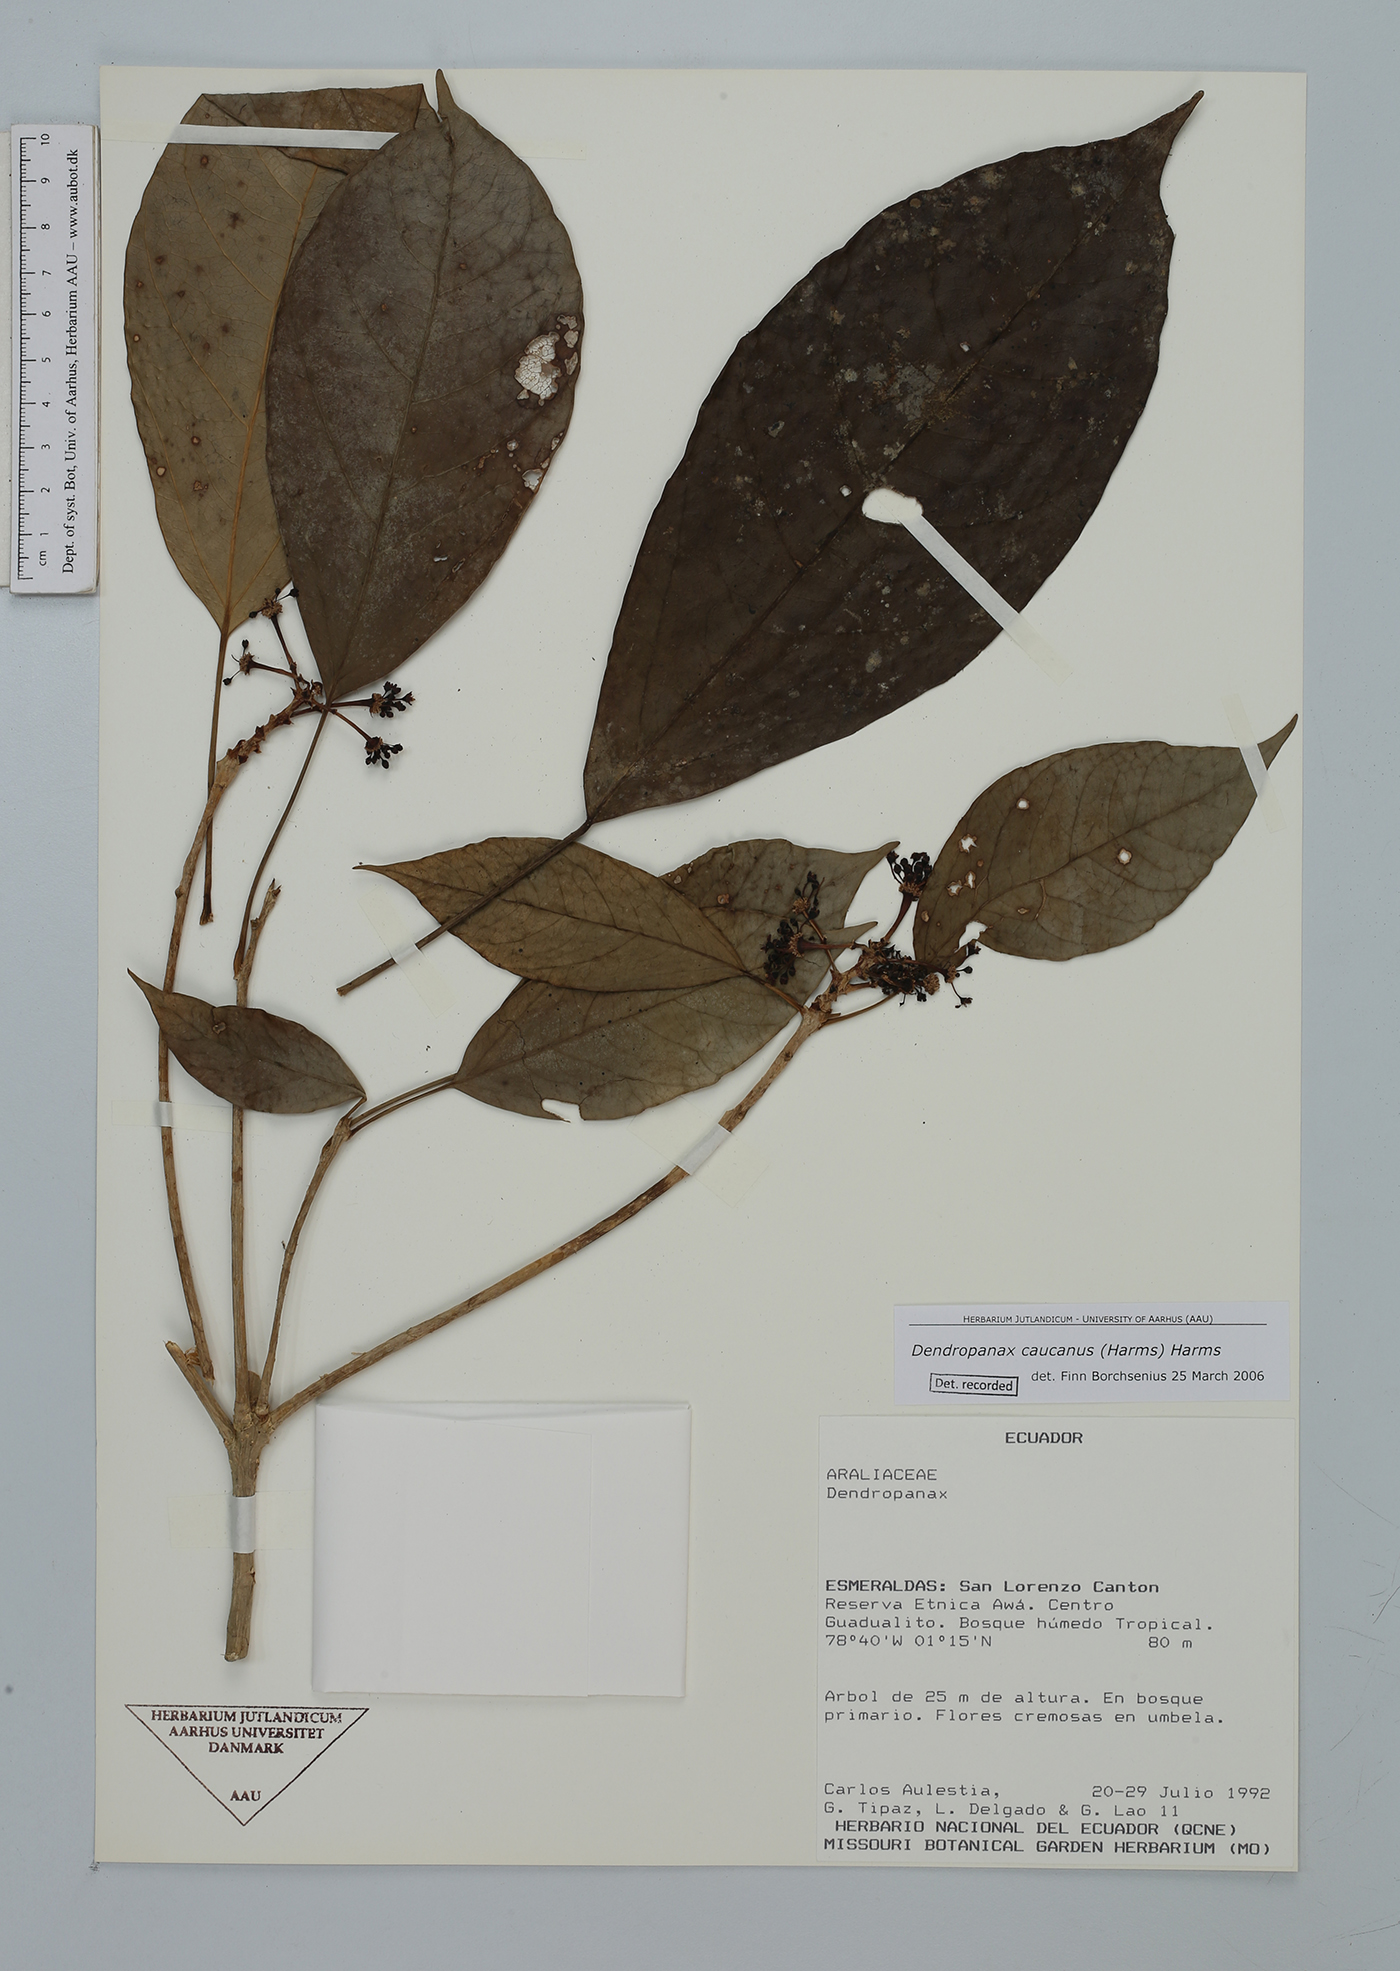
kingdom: Plantae
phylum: Tracheophyta
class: Magnoliopsida
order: Apiales
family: Araliaceae
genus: Dendropanax
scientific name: Dendropanax caucanus
